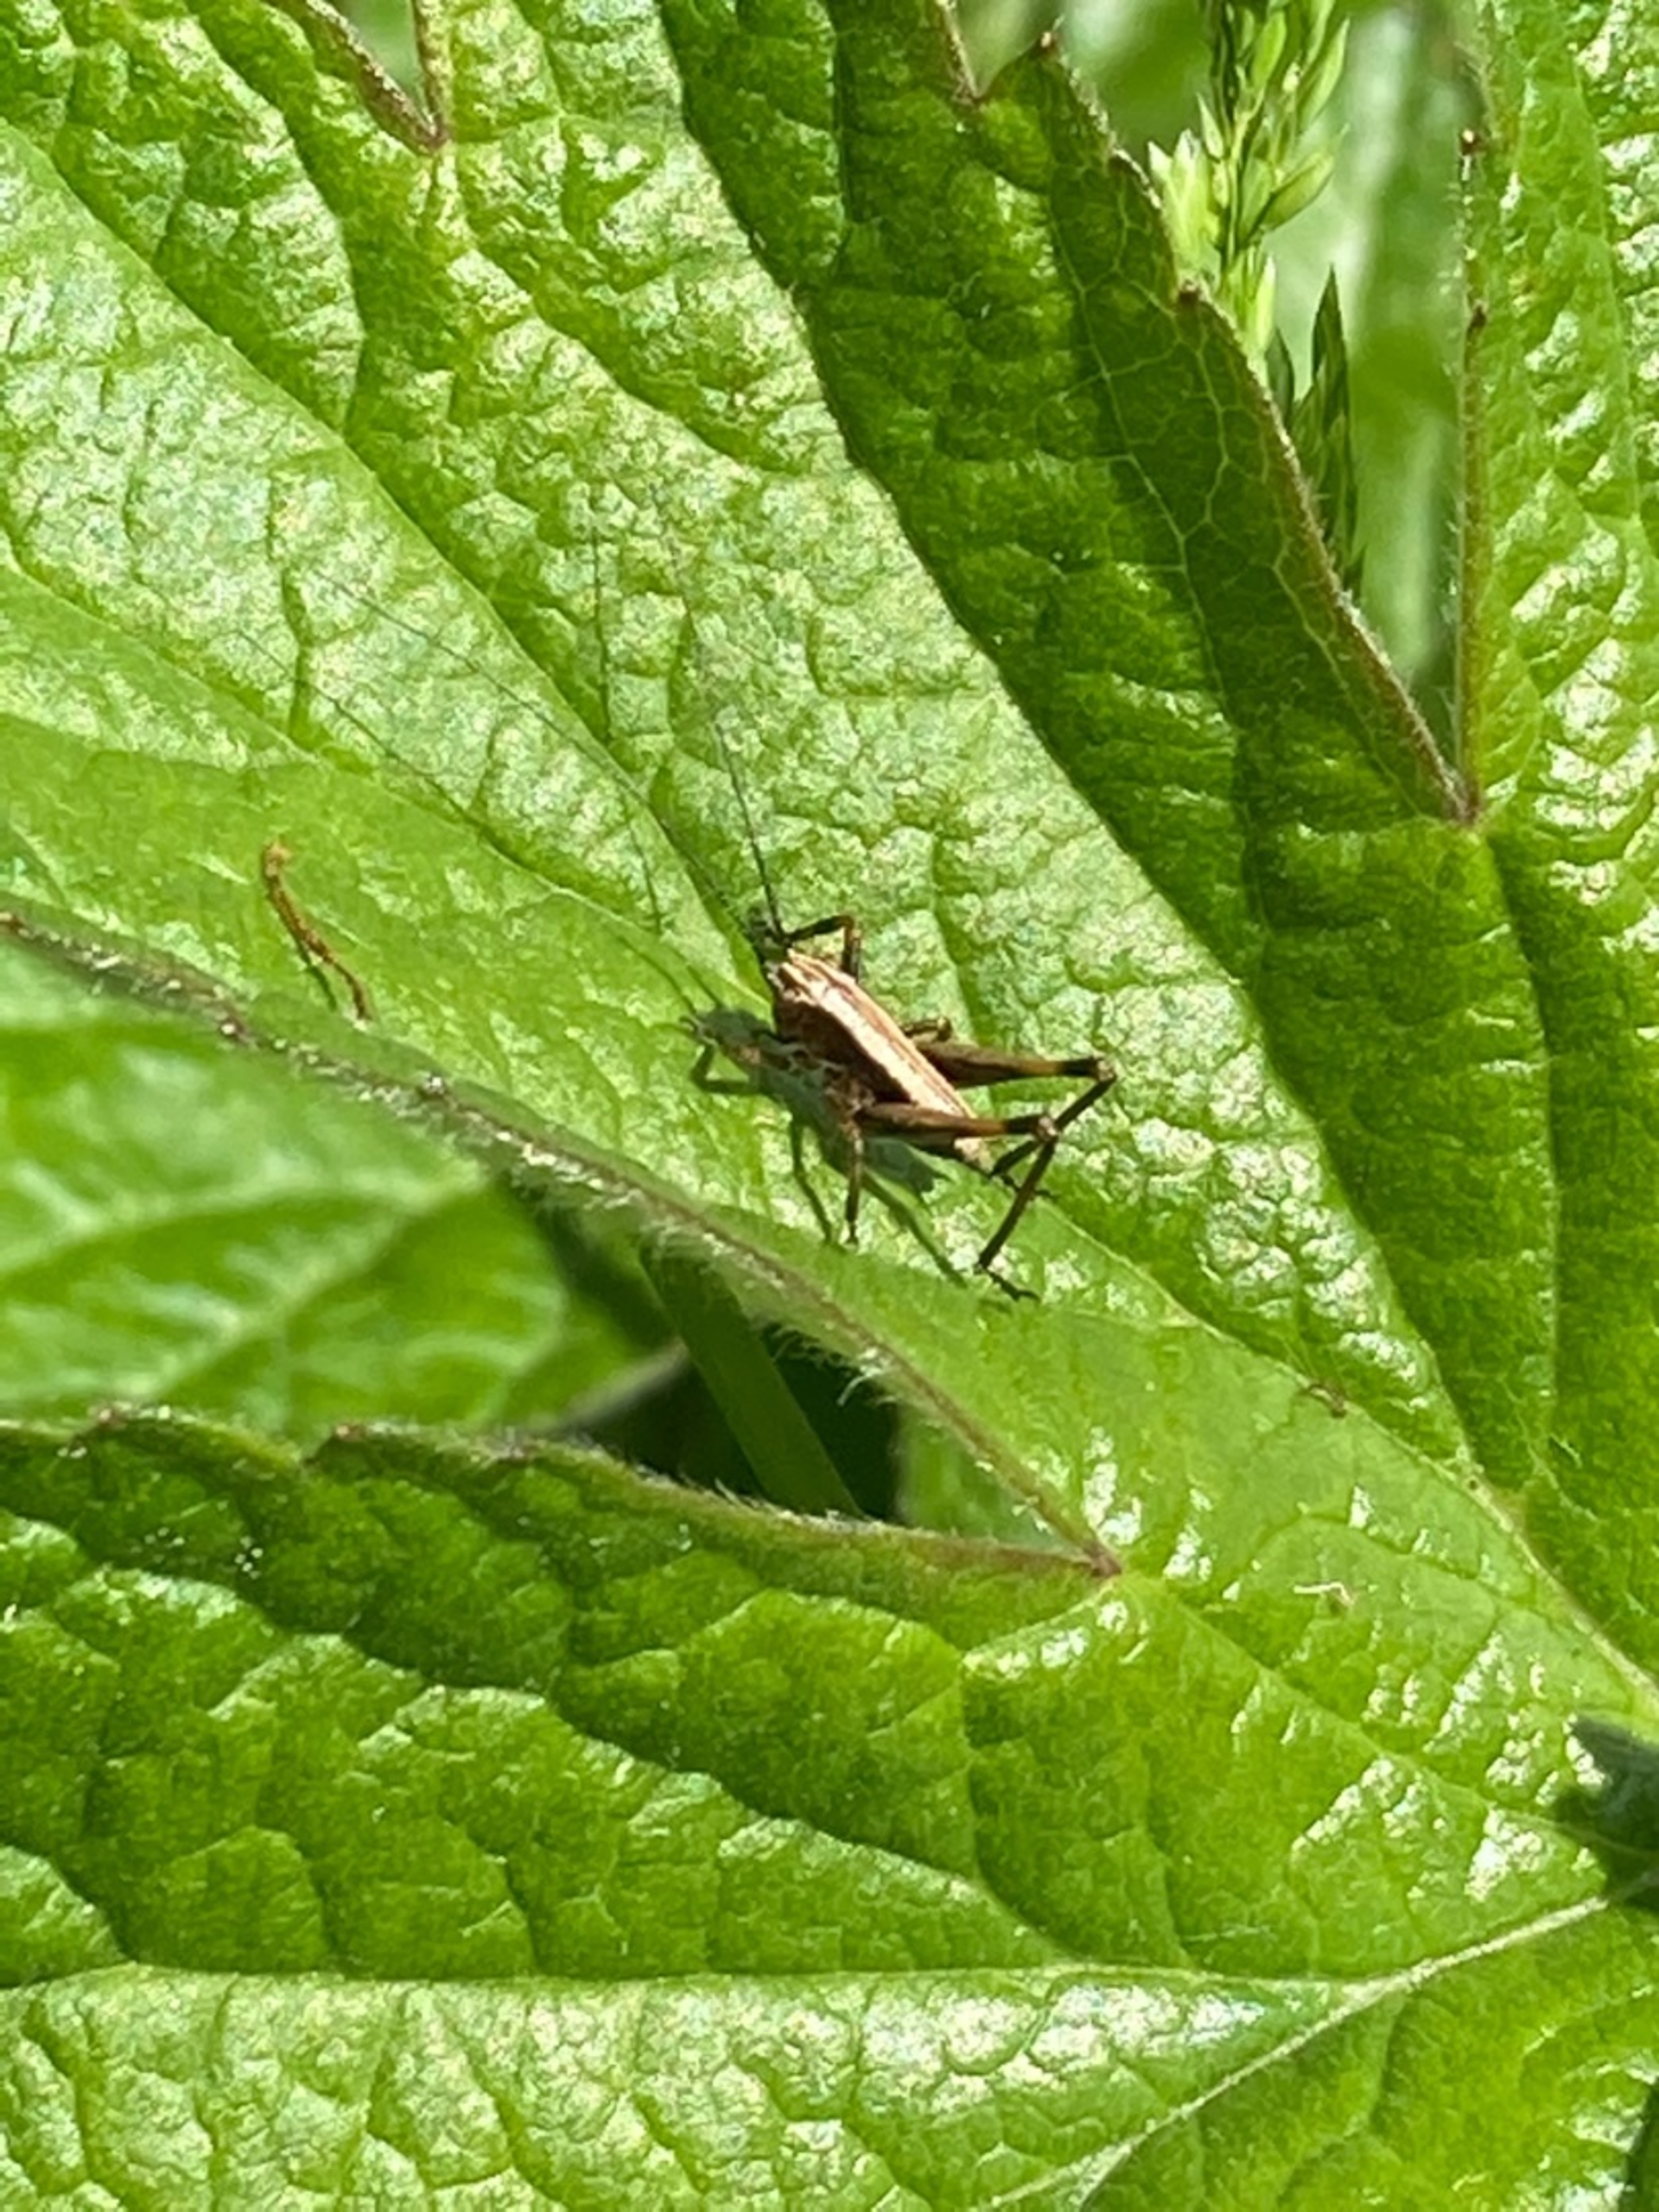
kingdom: Animalia
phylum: Arthropoda
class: Insecta
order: Orthoptera
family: Tettigoniidae
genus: Pholidoptera
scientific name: Pholidoptera griseoaptera
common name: Buskgræshoppe
